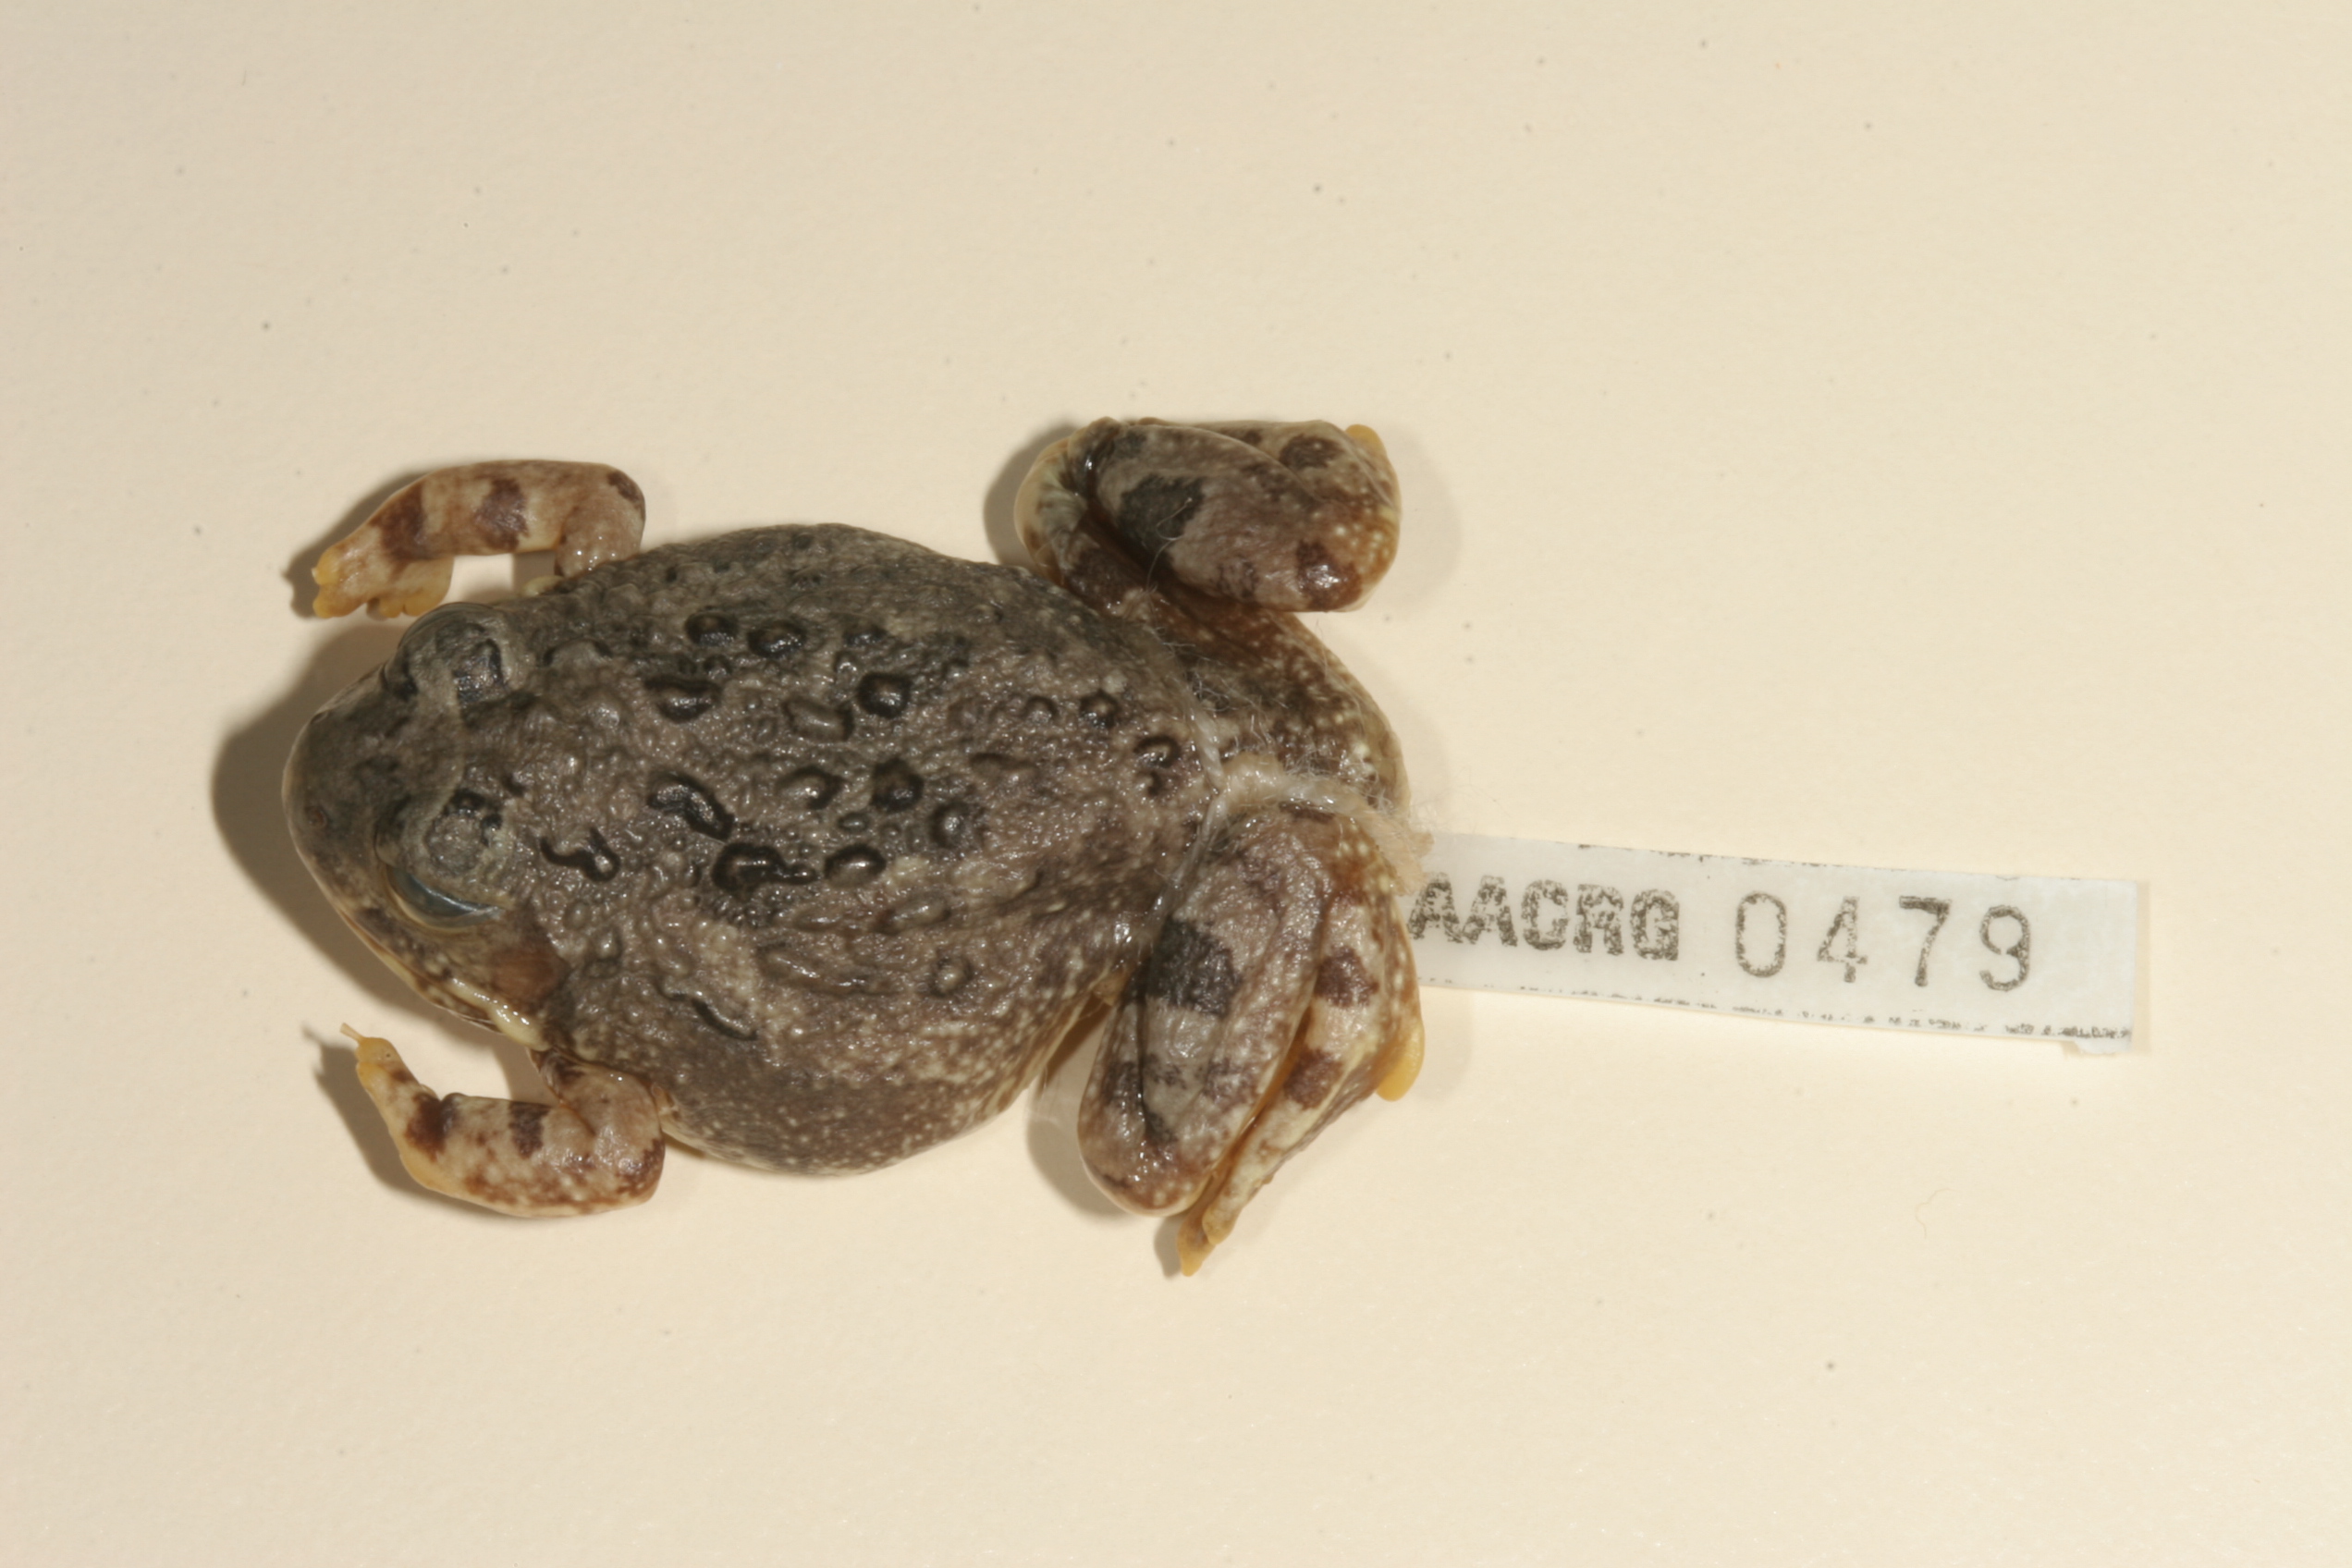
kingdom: Animalia
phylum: Chordata
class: Amphibia
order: Anura
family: Pyxicephalidae
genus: Tomopterna
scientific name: Tomopterna cryptotis
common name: Catequero bullfrog
